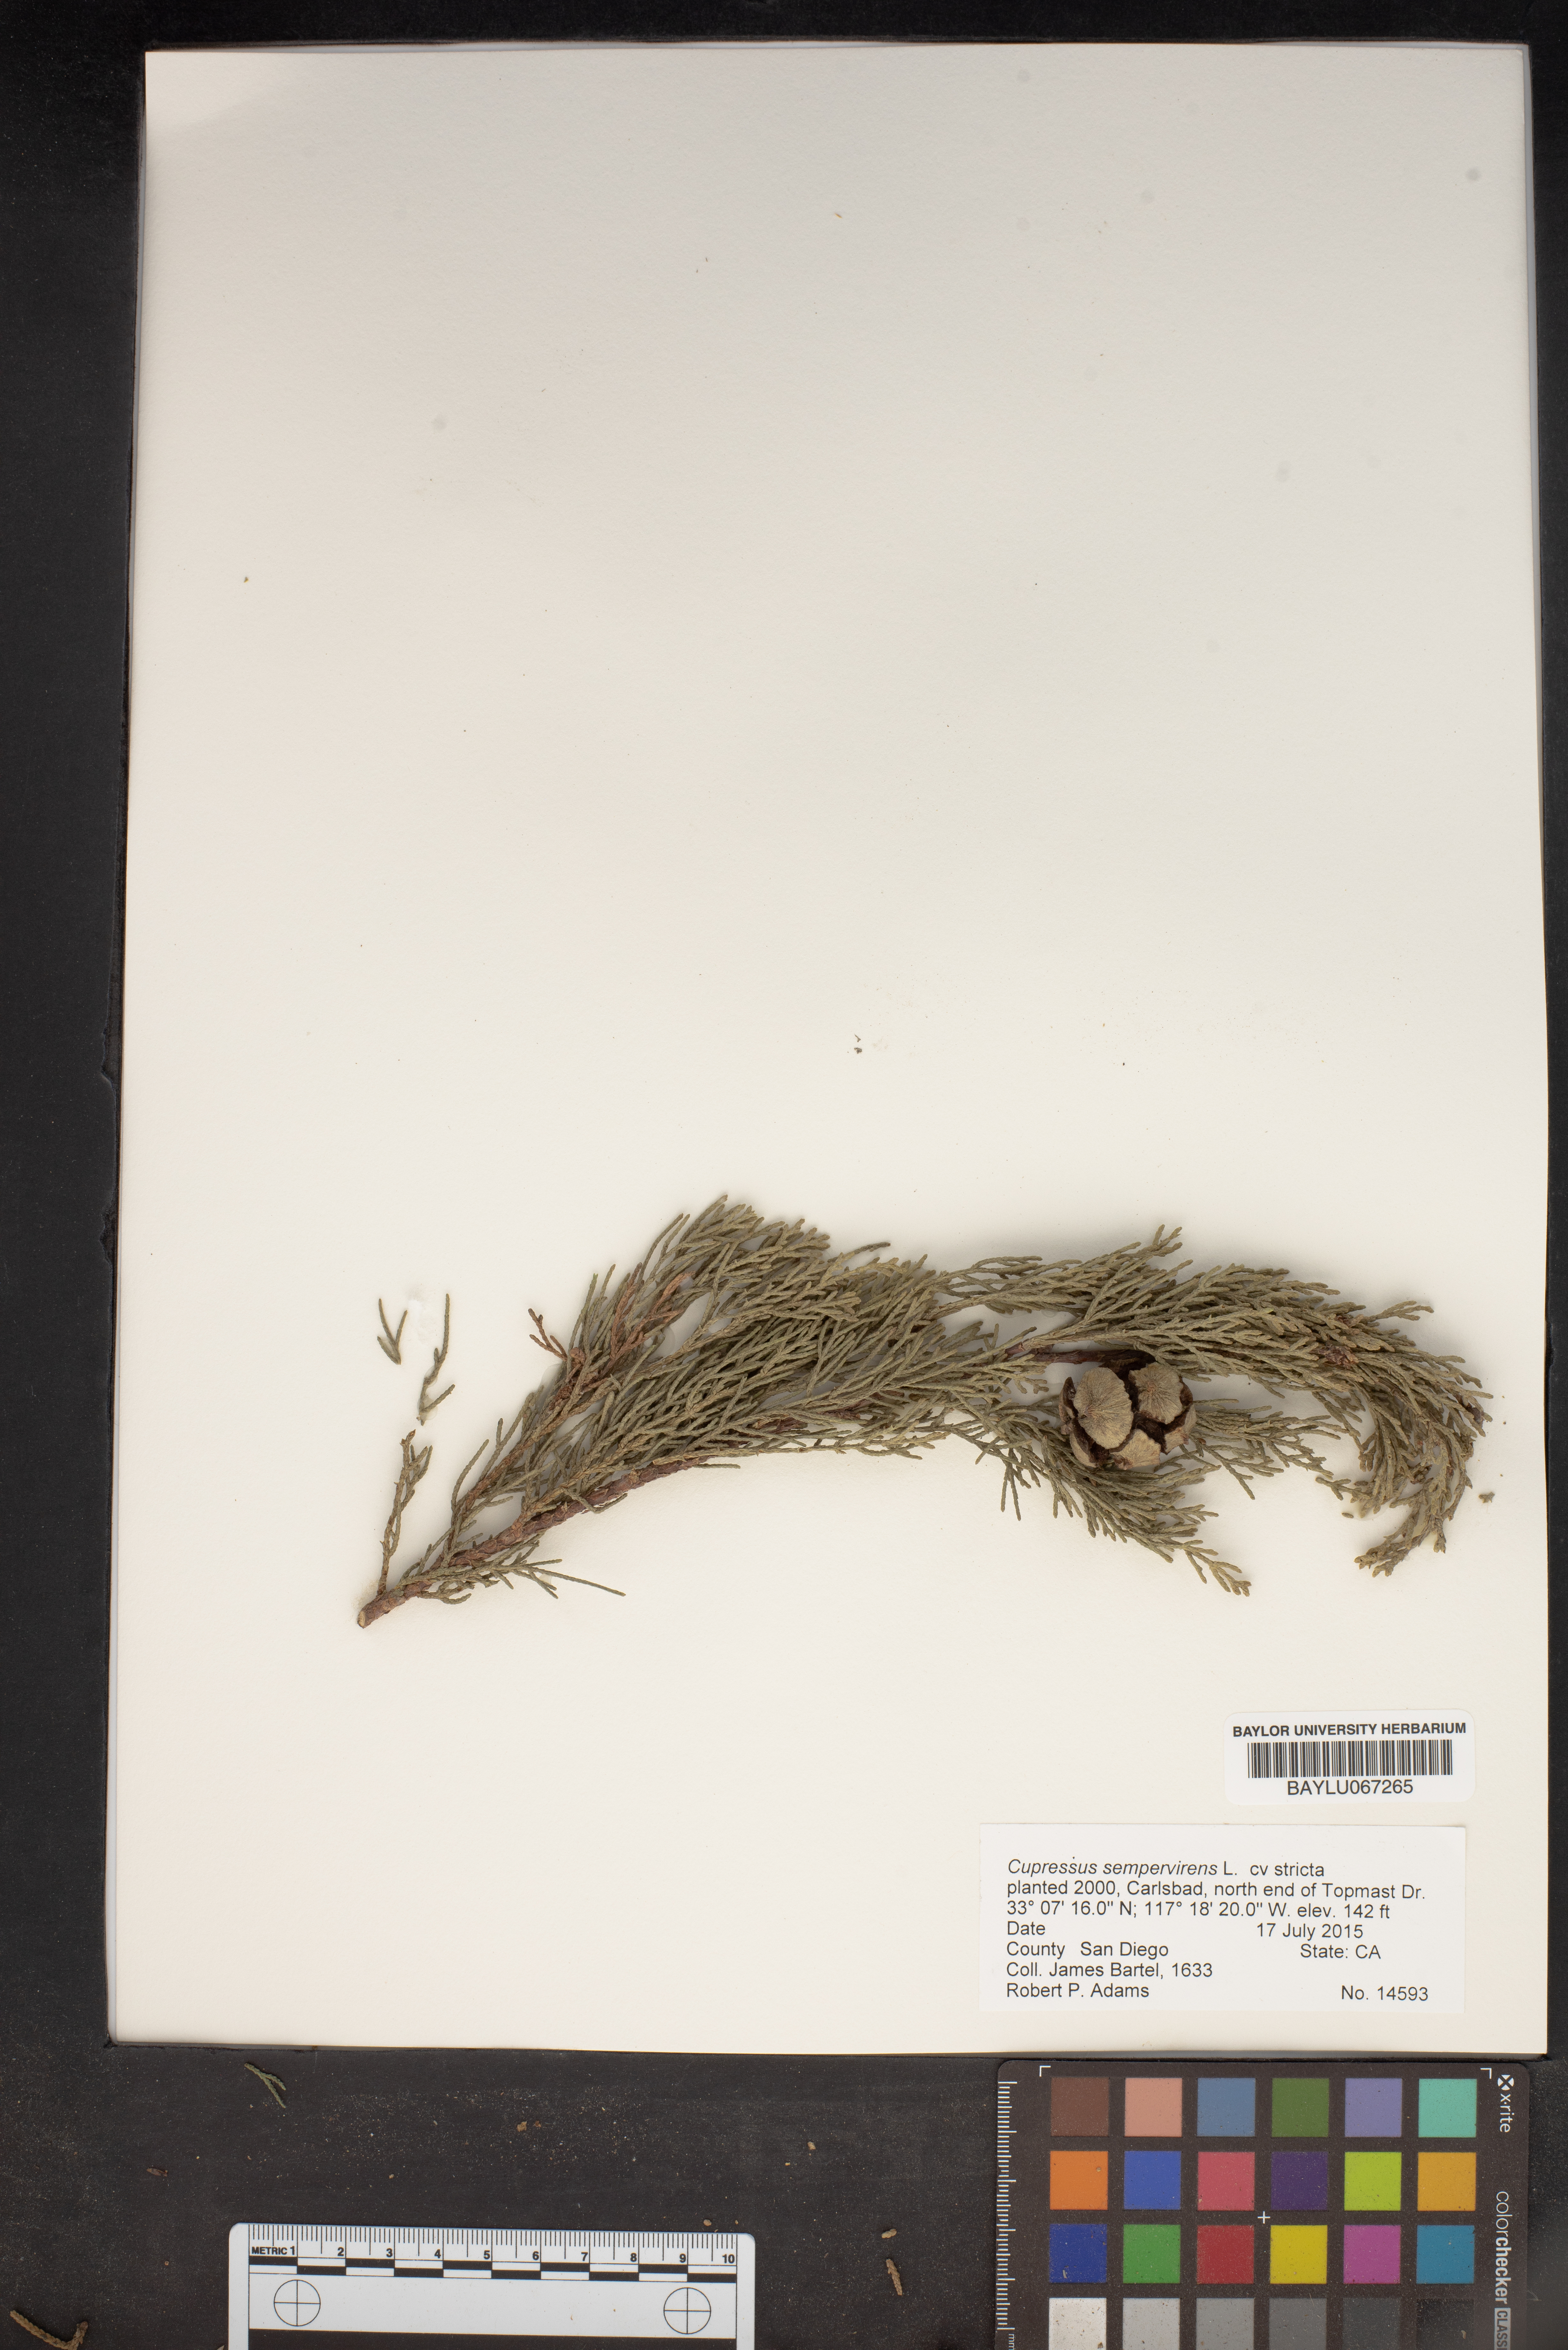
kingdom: Plantae
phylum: Tracheophyta
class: Pinopsida
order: Pinales
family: Cupressaceae
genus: Cupressus
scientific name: Cupressus sempervirens
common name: Italian cypress
